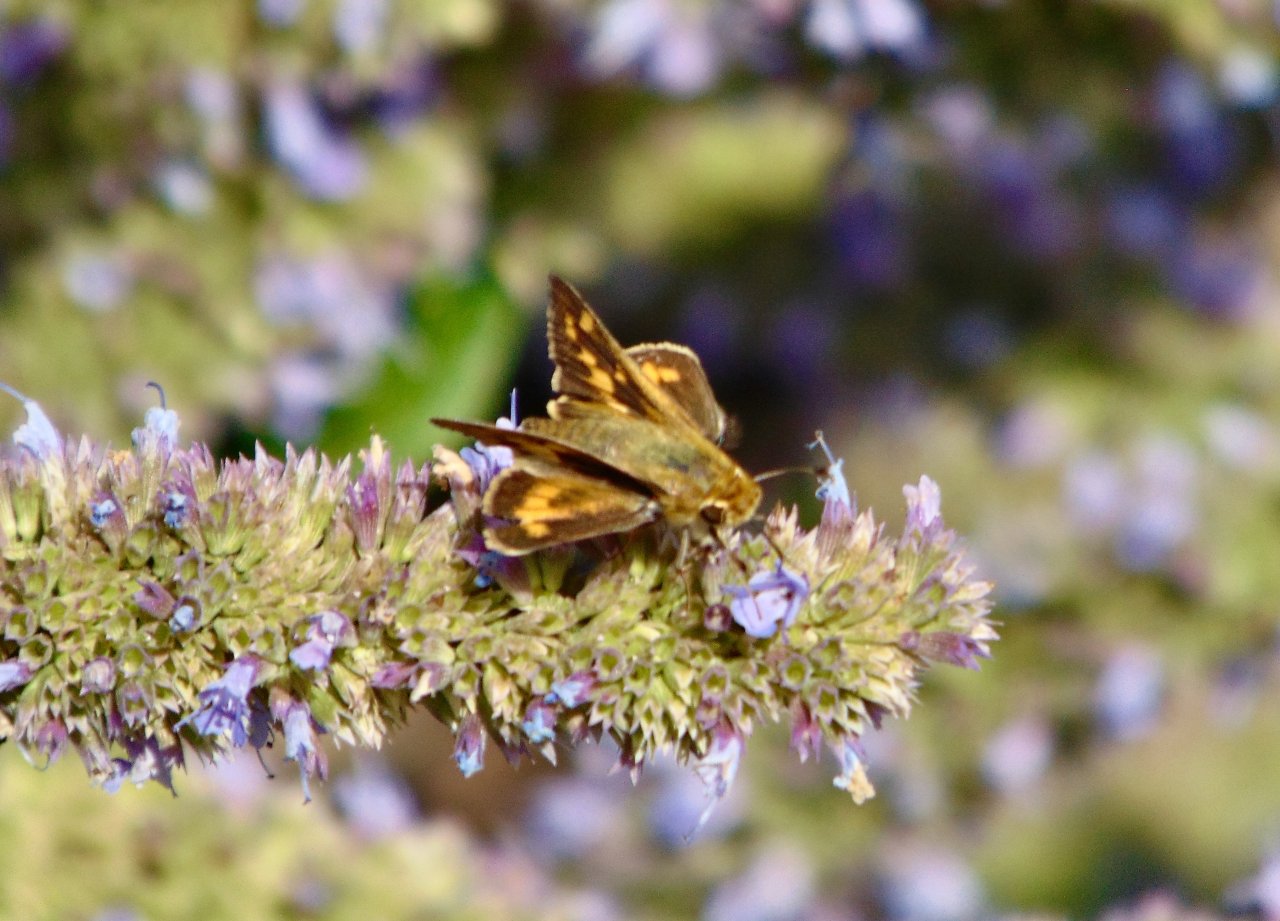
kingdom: Animalia
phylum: Arthropoda
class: Insecta
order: Lepidoptera
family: Hesperiidae
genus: Hylephila
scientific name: Hylephila phyleus
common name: Fiery Skipper
